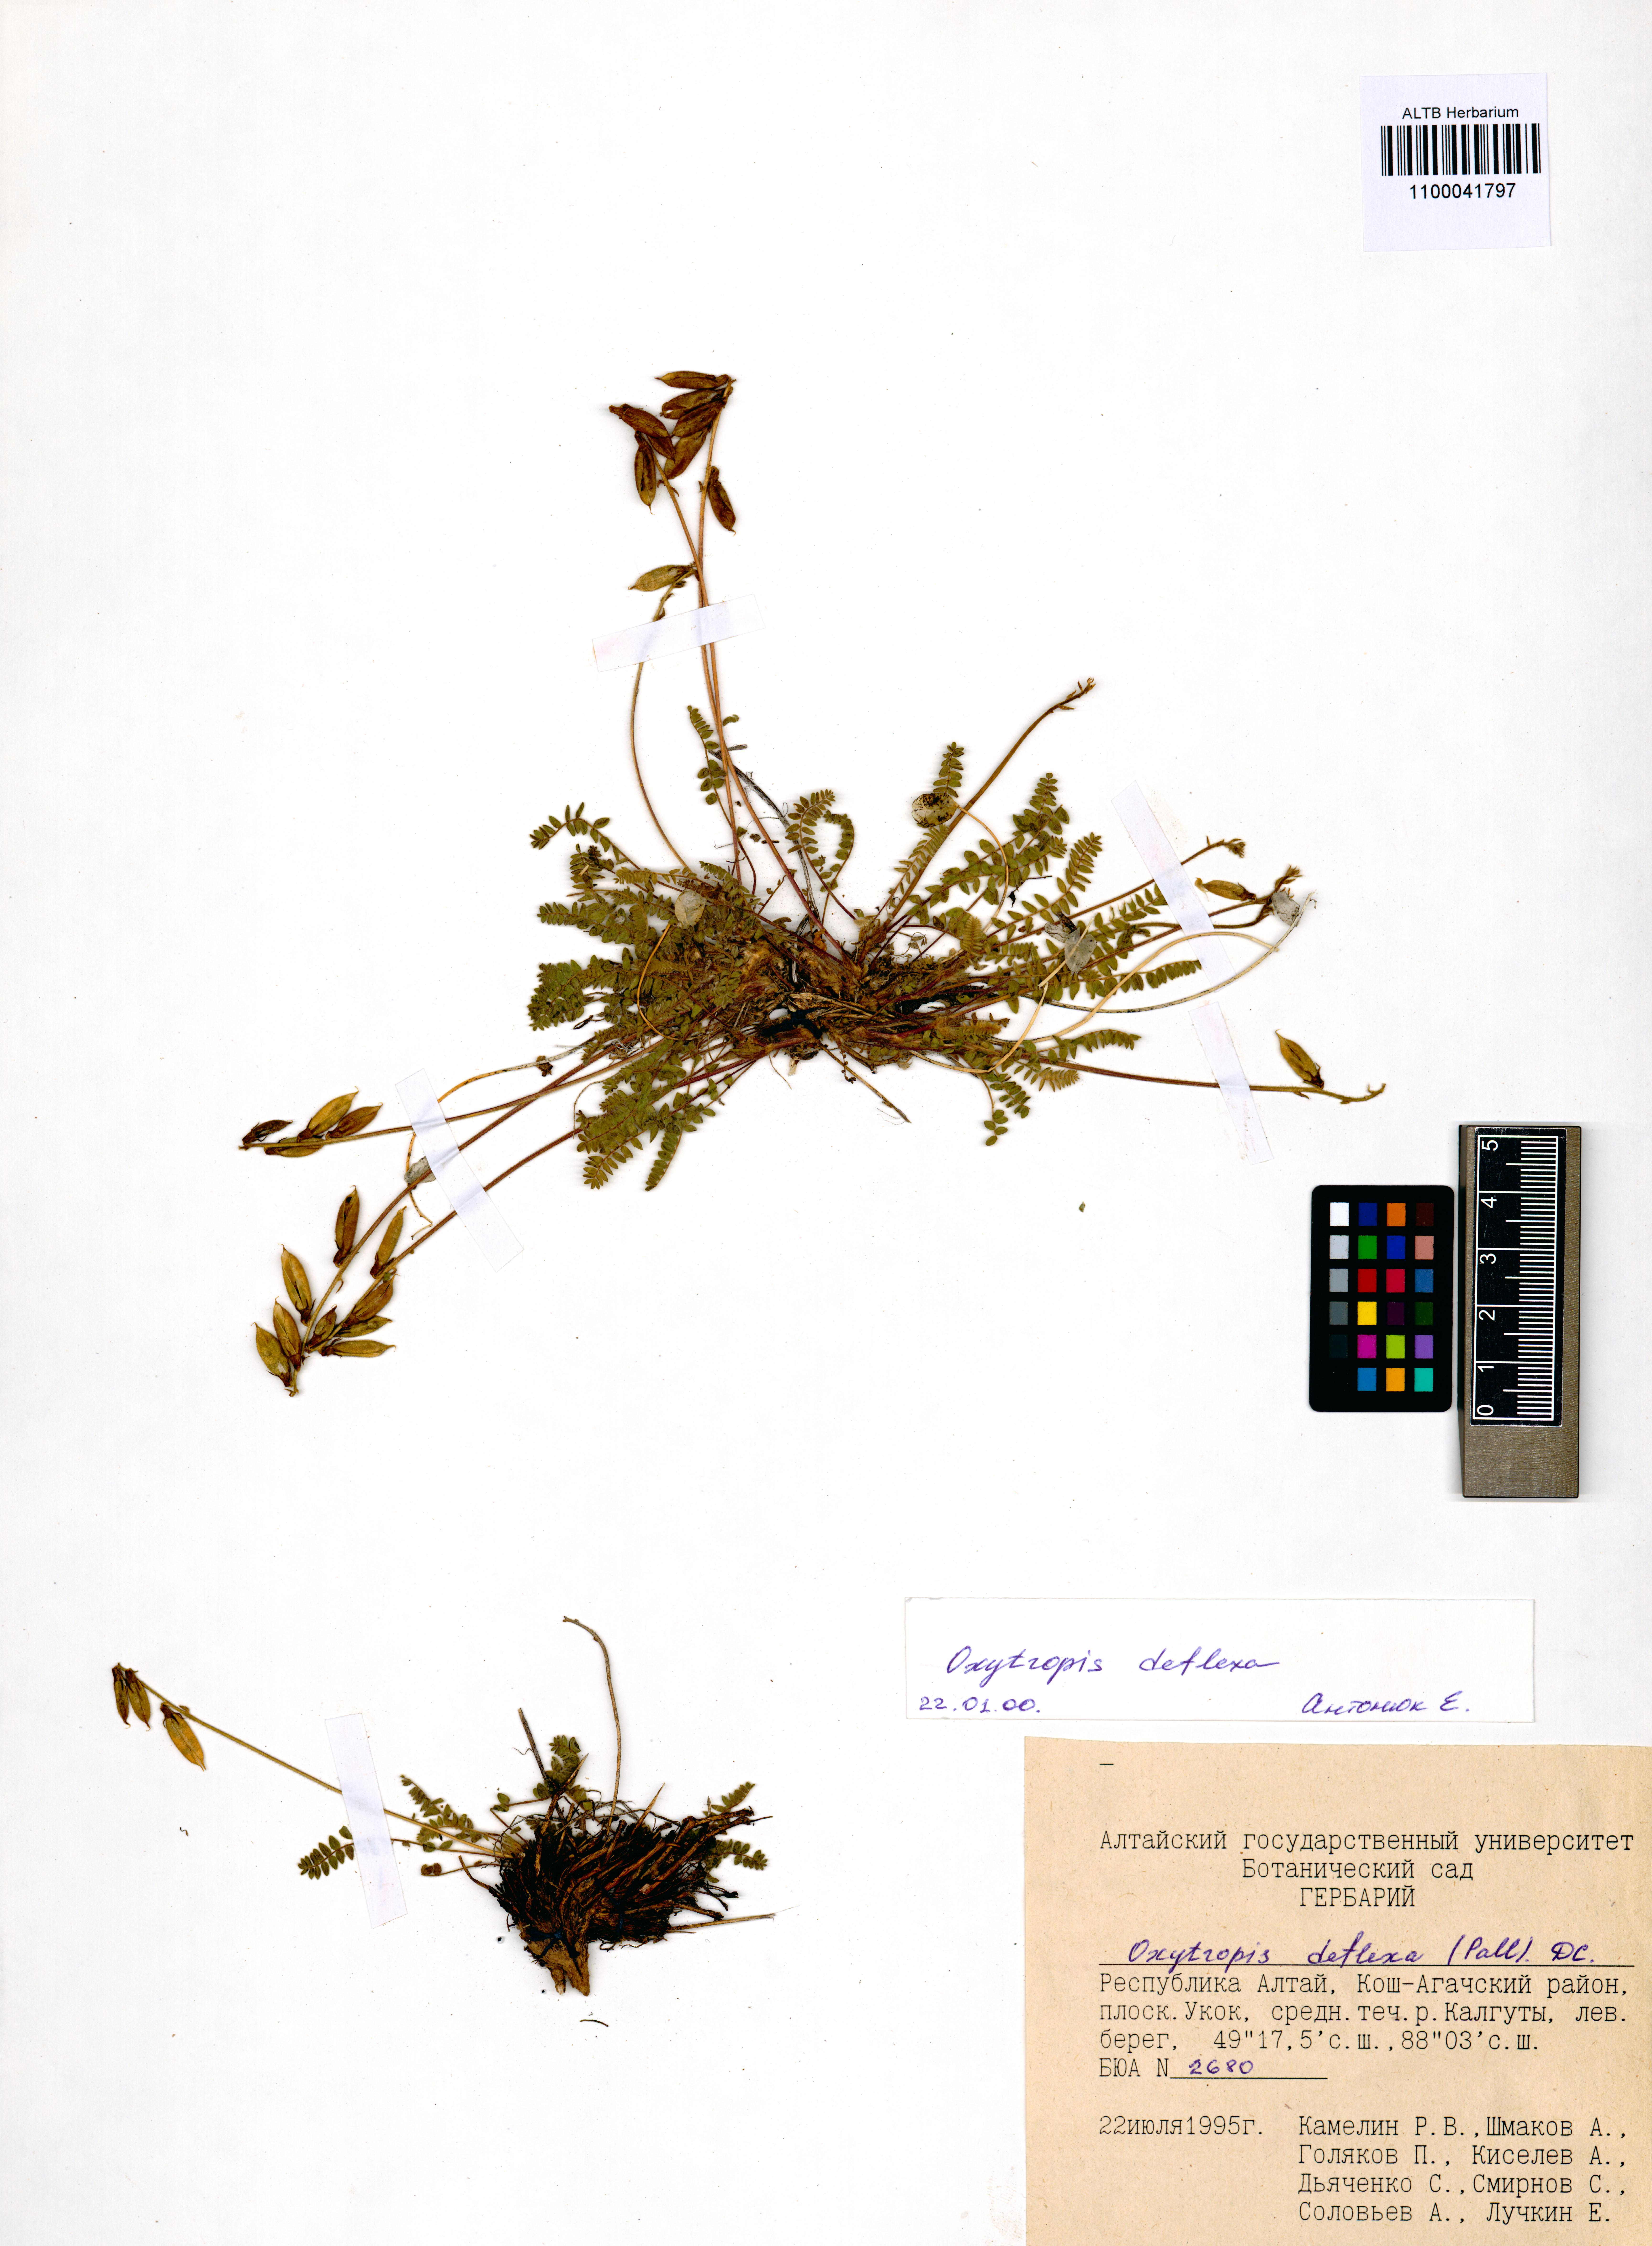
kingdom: Plantae
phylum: Tracheophyta
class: Magnoliopsida
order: Fabales
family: Fabaceae
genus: Oxytropis
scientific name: Oxytropis deflexa
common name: Stemmed oxytrope
